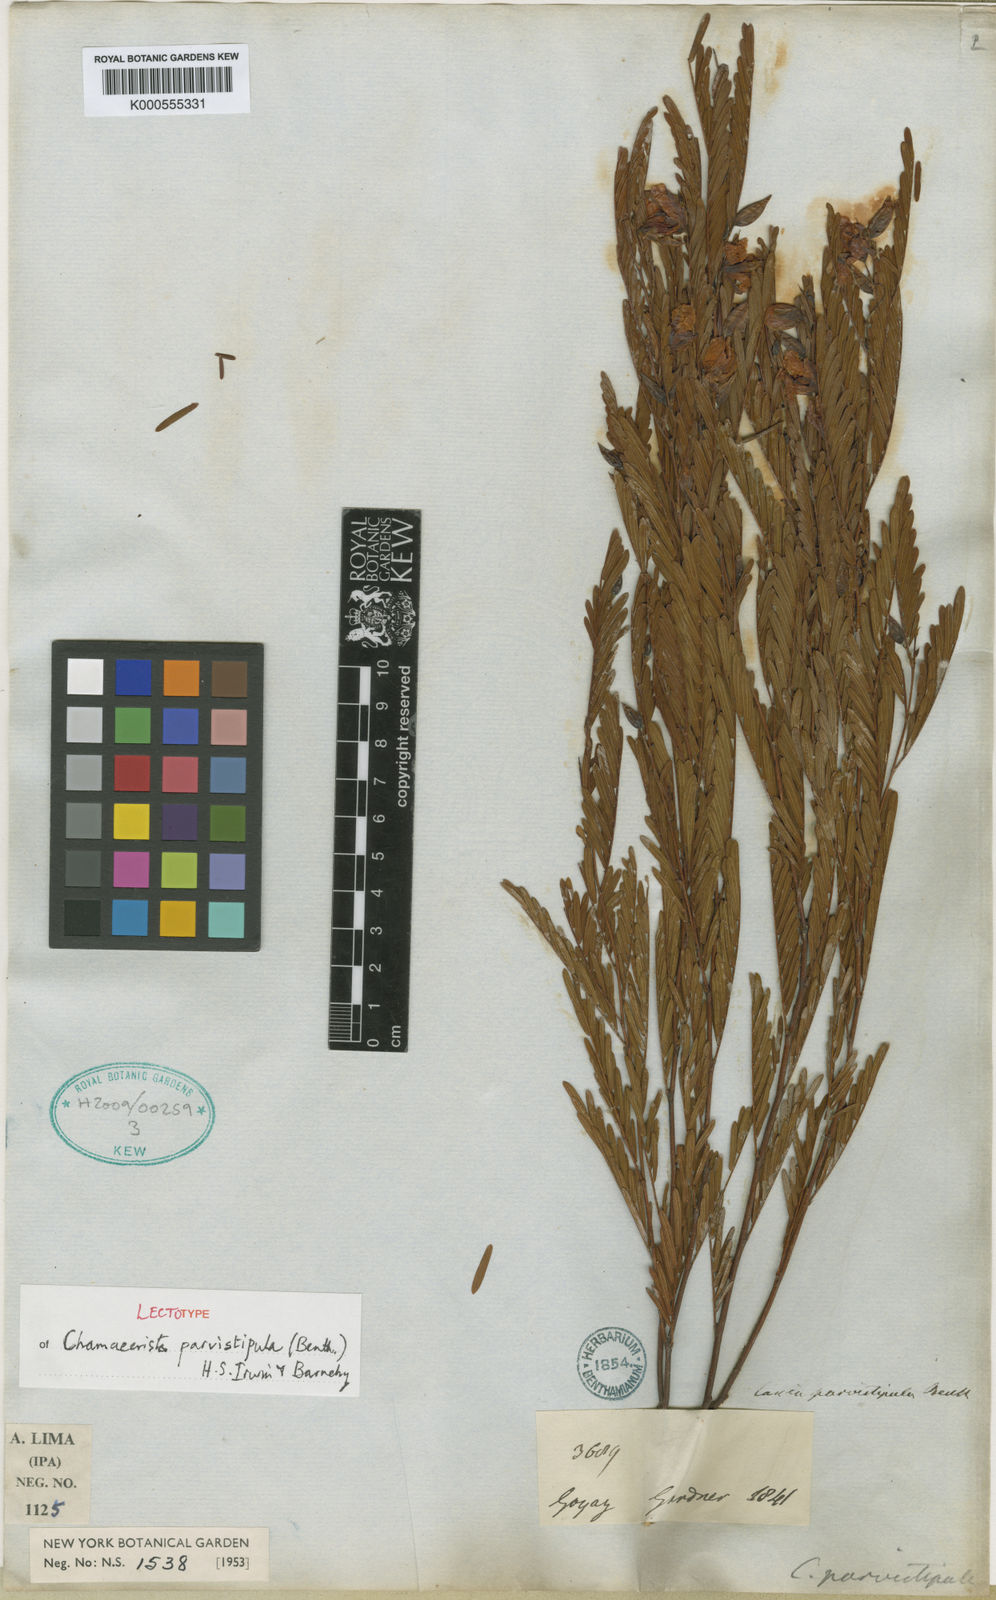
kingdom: Plantae
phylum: Tracheophyta
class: Magnoliopsida
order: Fabales
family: Fabaceae
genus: Chamaecrista
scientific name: Chamaecrista parvistipula
